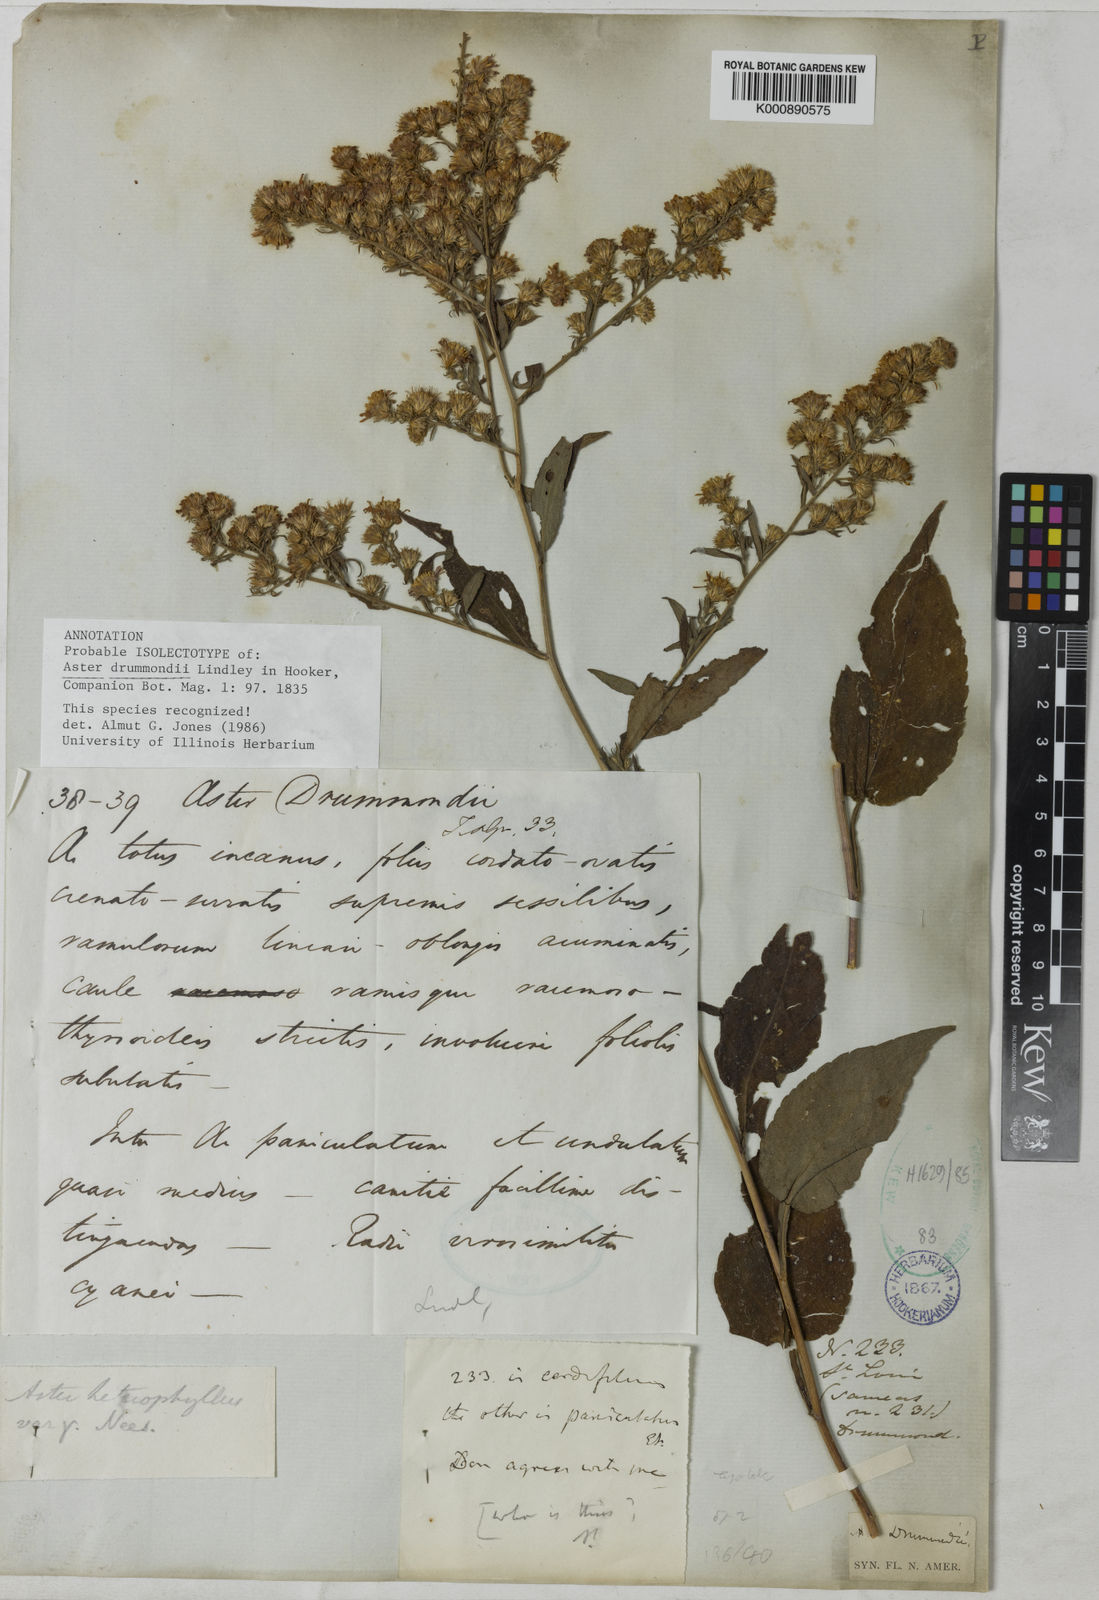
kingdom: Plantae
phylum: Tracheophyta
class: Magnoliopsida
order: Asterales
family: Asteraceae
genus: Symphyotrichum
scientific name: Symphyotrichum drummondii
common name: Drummond's aster
